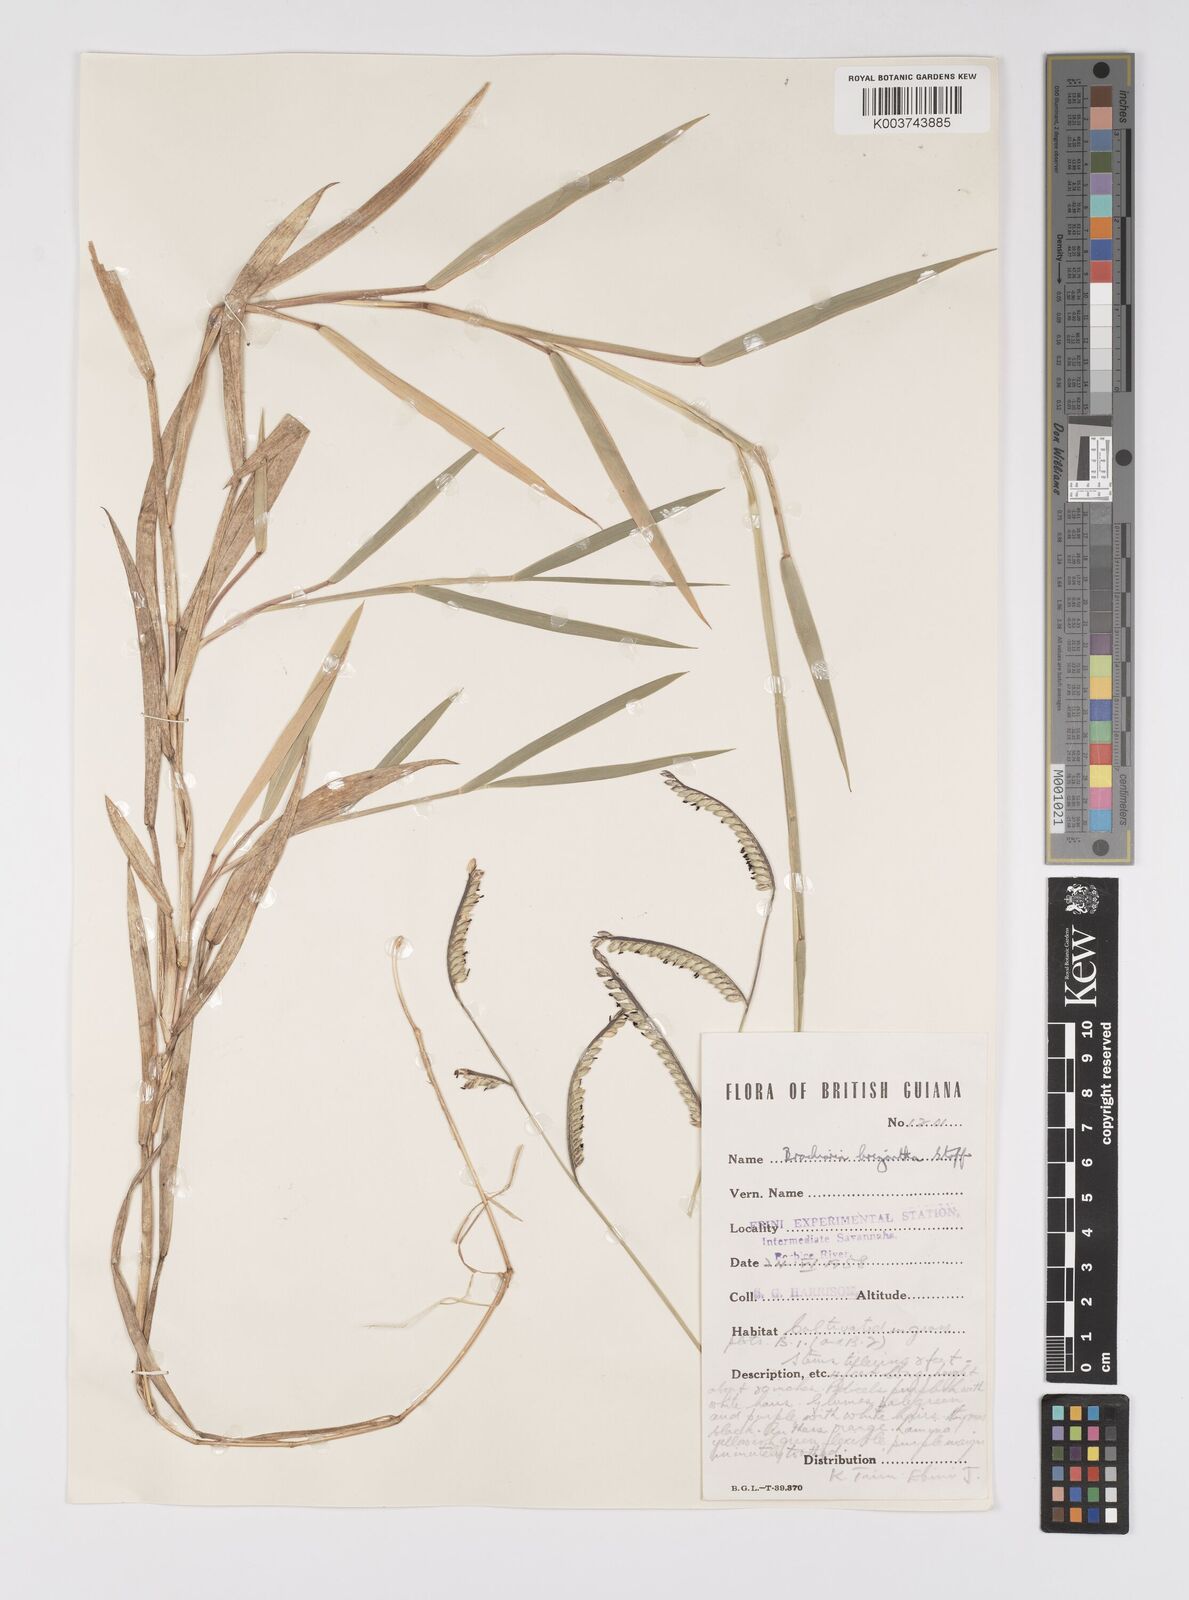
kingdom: Plantae
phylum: Tracheophyta
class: Liliopsida
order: Poales
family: Poaceae
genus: Urochloa
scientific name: Urochloa brizantha
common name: Palisade signalgrass
